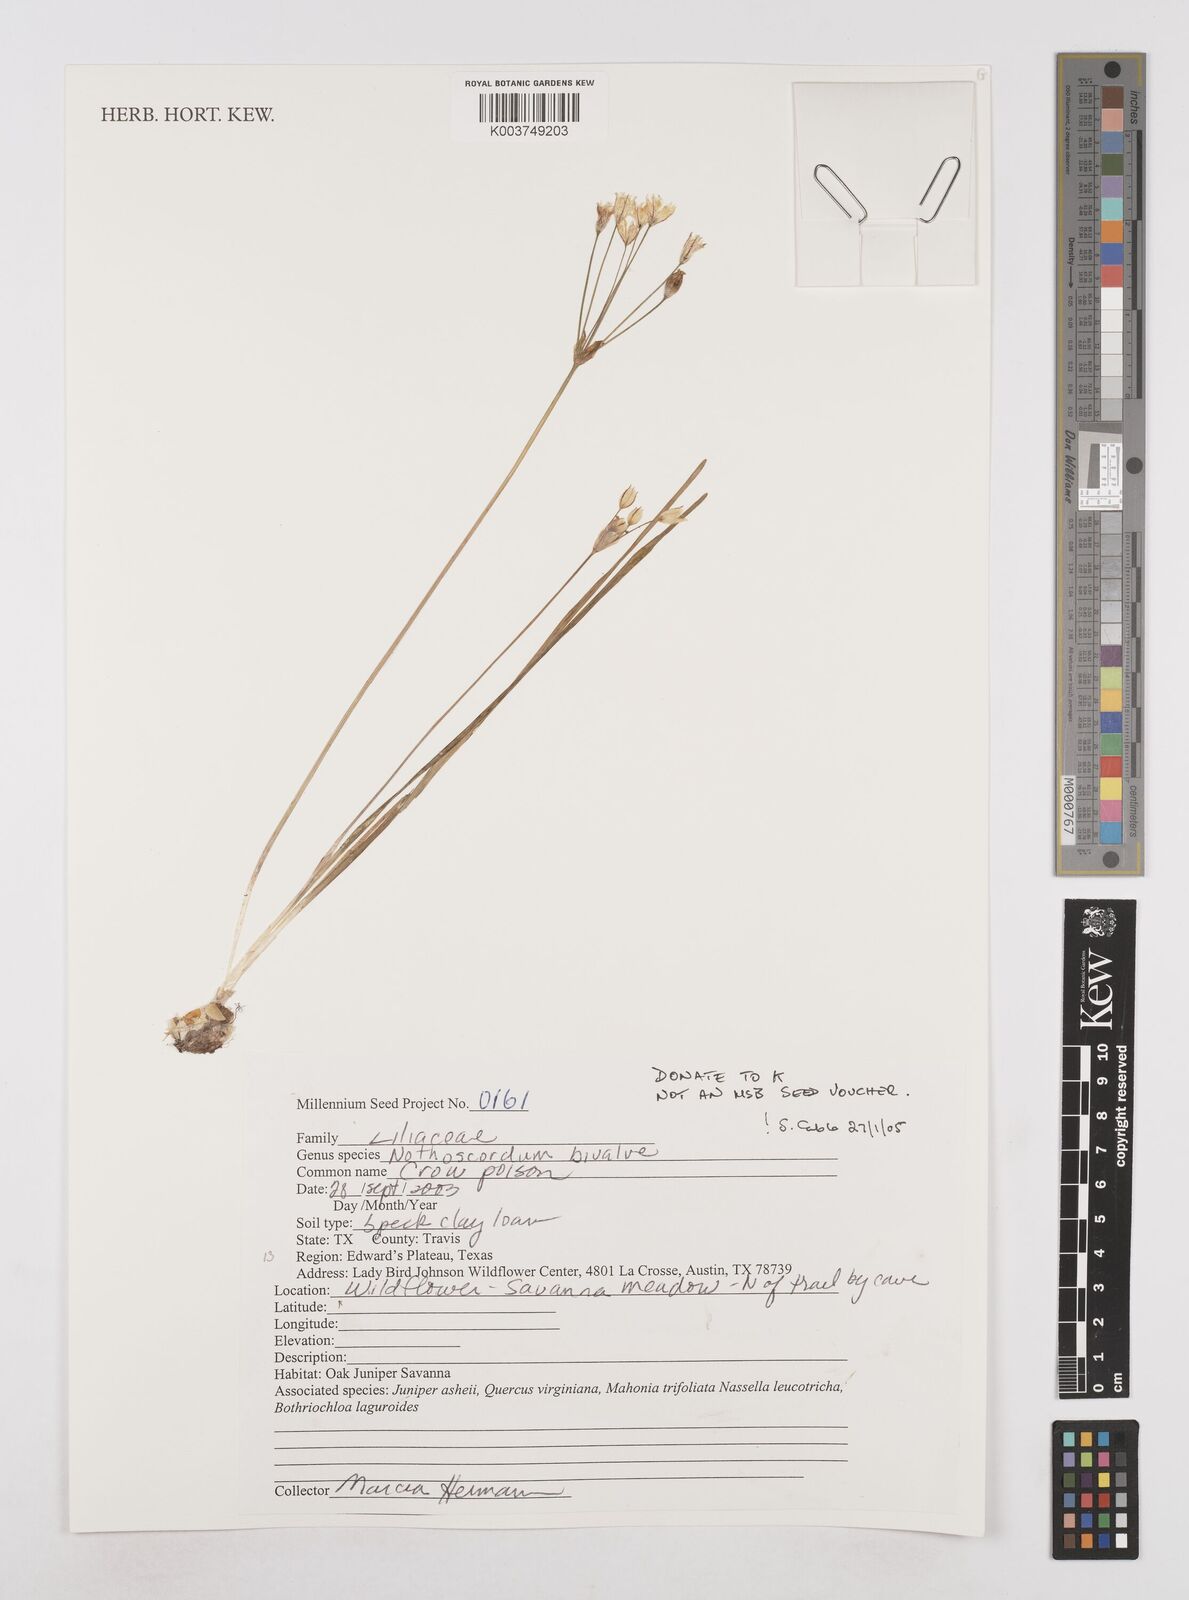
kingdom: Plantae
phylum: Tracheophyta
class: Liliopsida
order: Asparagales
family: Amaryllidaceae
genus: Nothoscordum
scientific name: Nothoscordum bivalve
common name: Crow-poison
